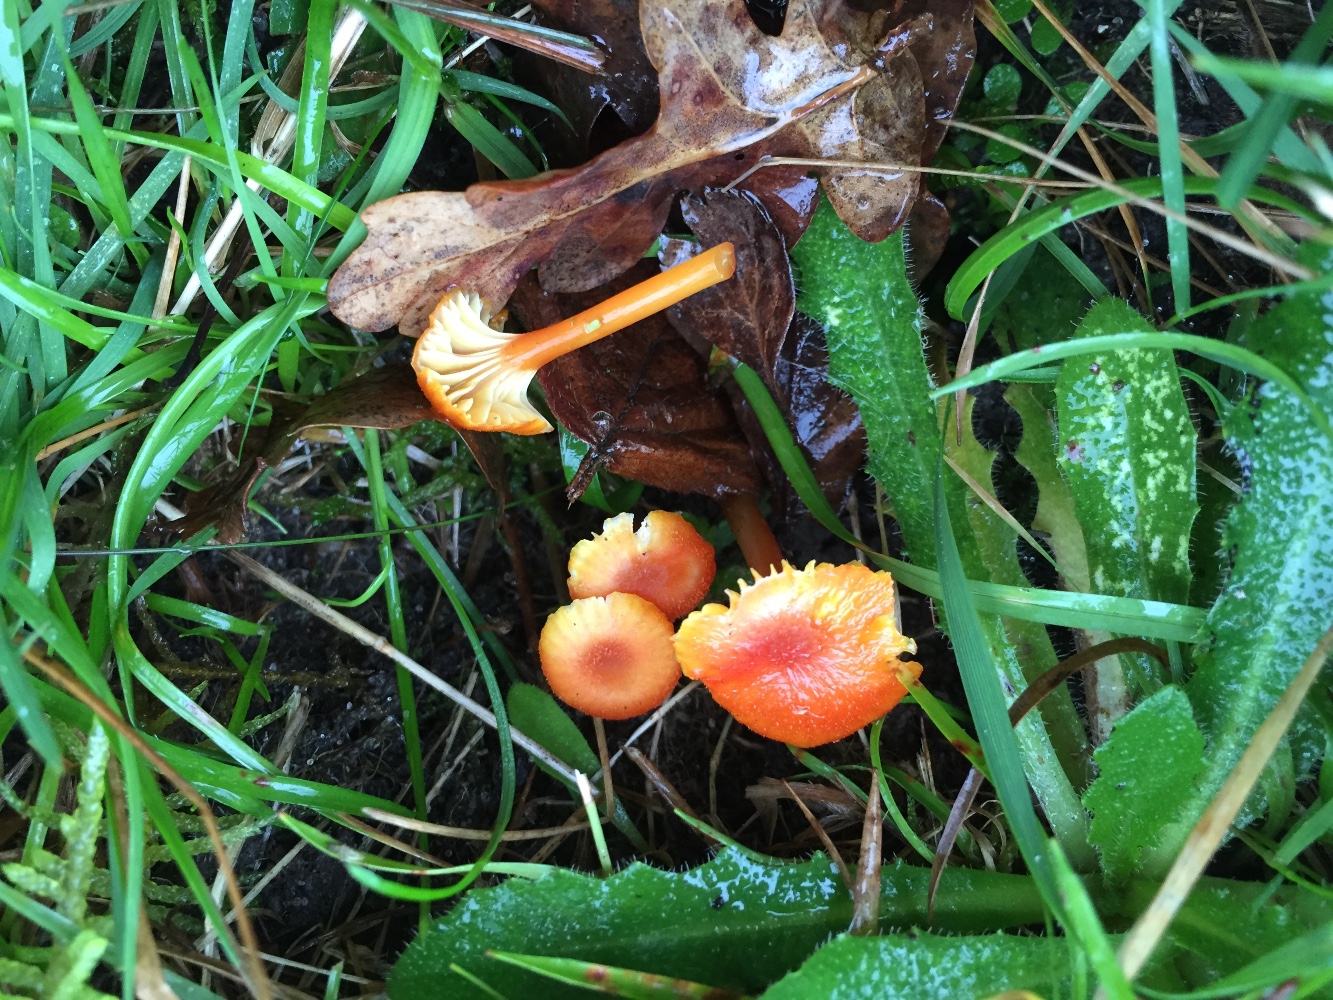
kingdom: Fungi
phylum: Basidiomycota
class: Agaricomycetes
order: Agaricales
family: Hygrophoraceae
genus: Hygrocybe
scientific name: Hygrocybe cantharellus
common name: kantarel-vokshat
